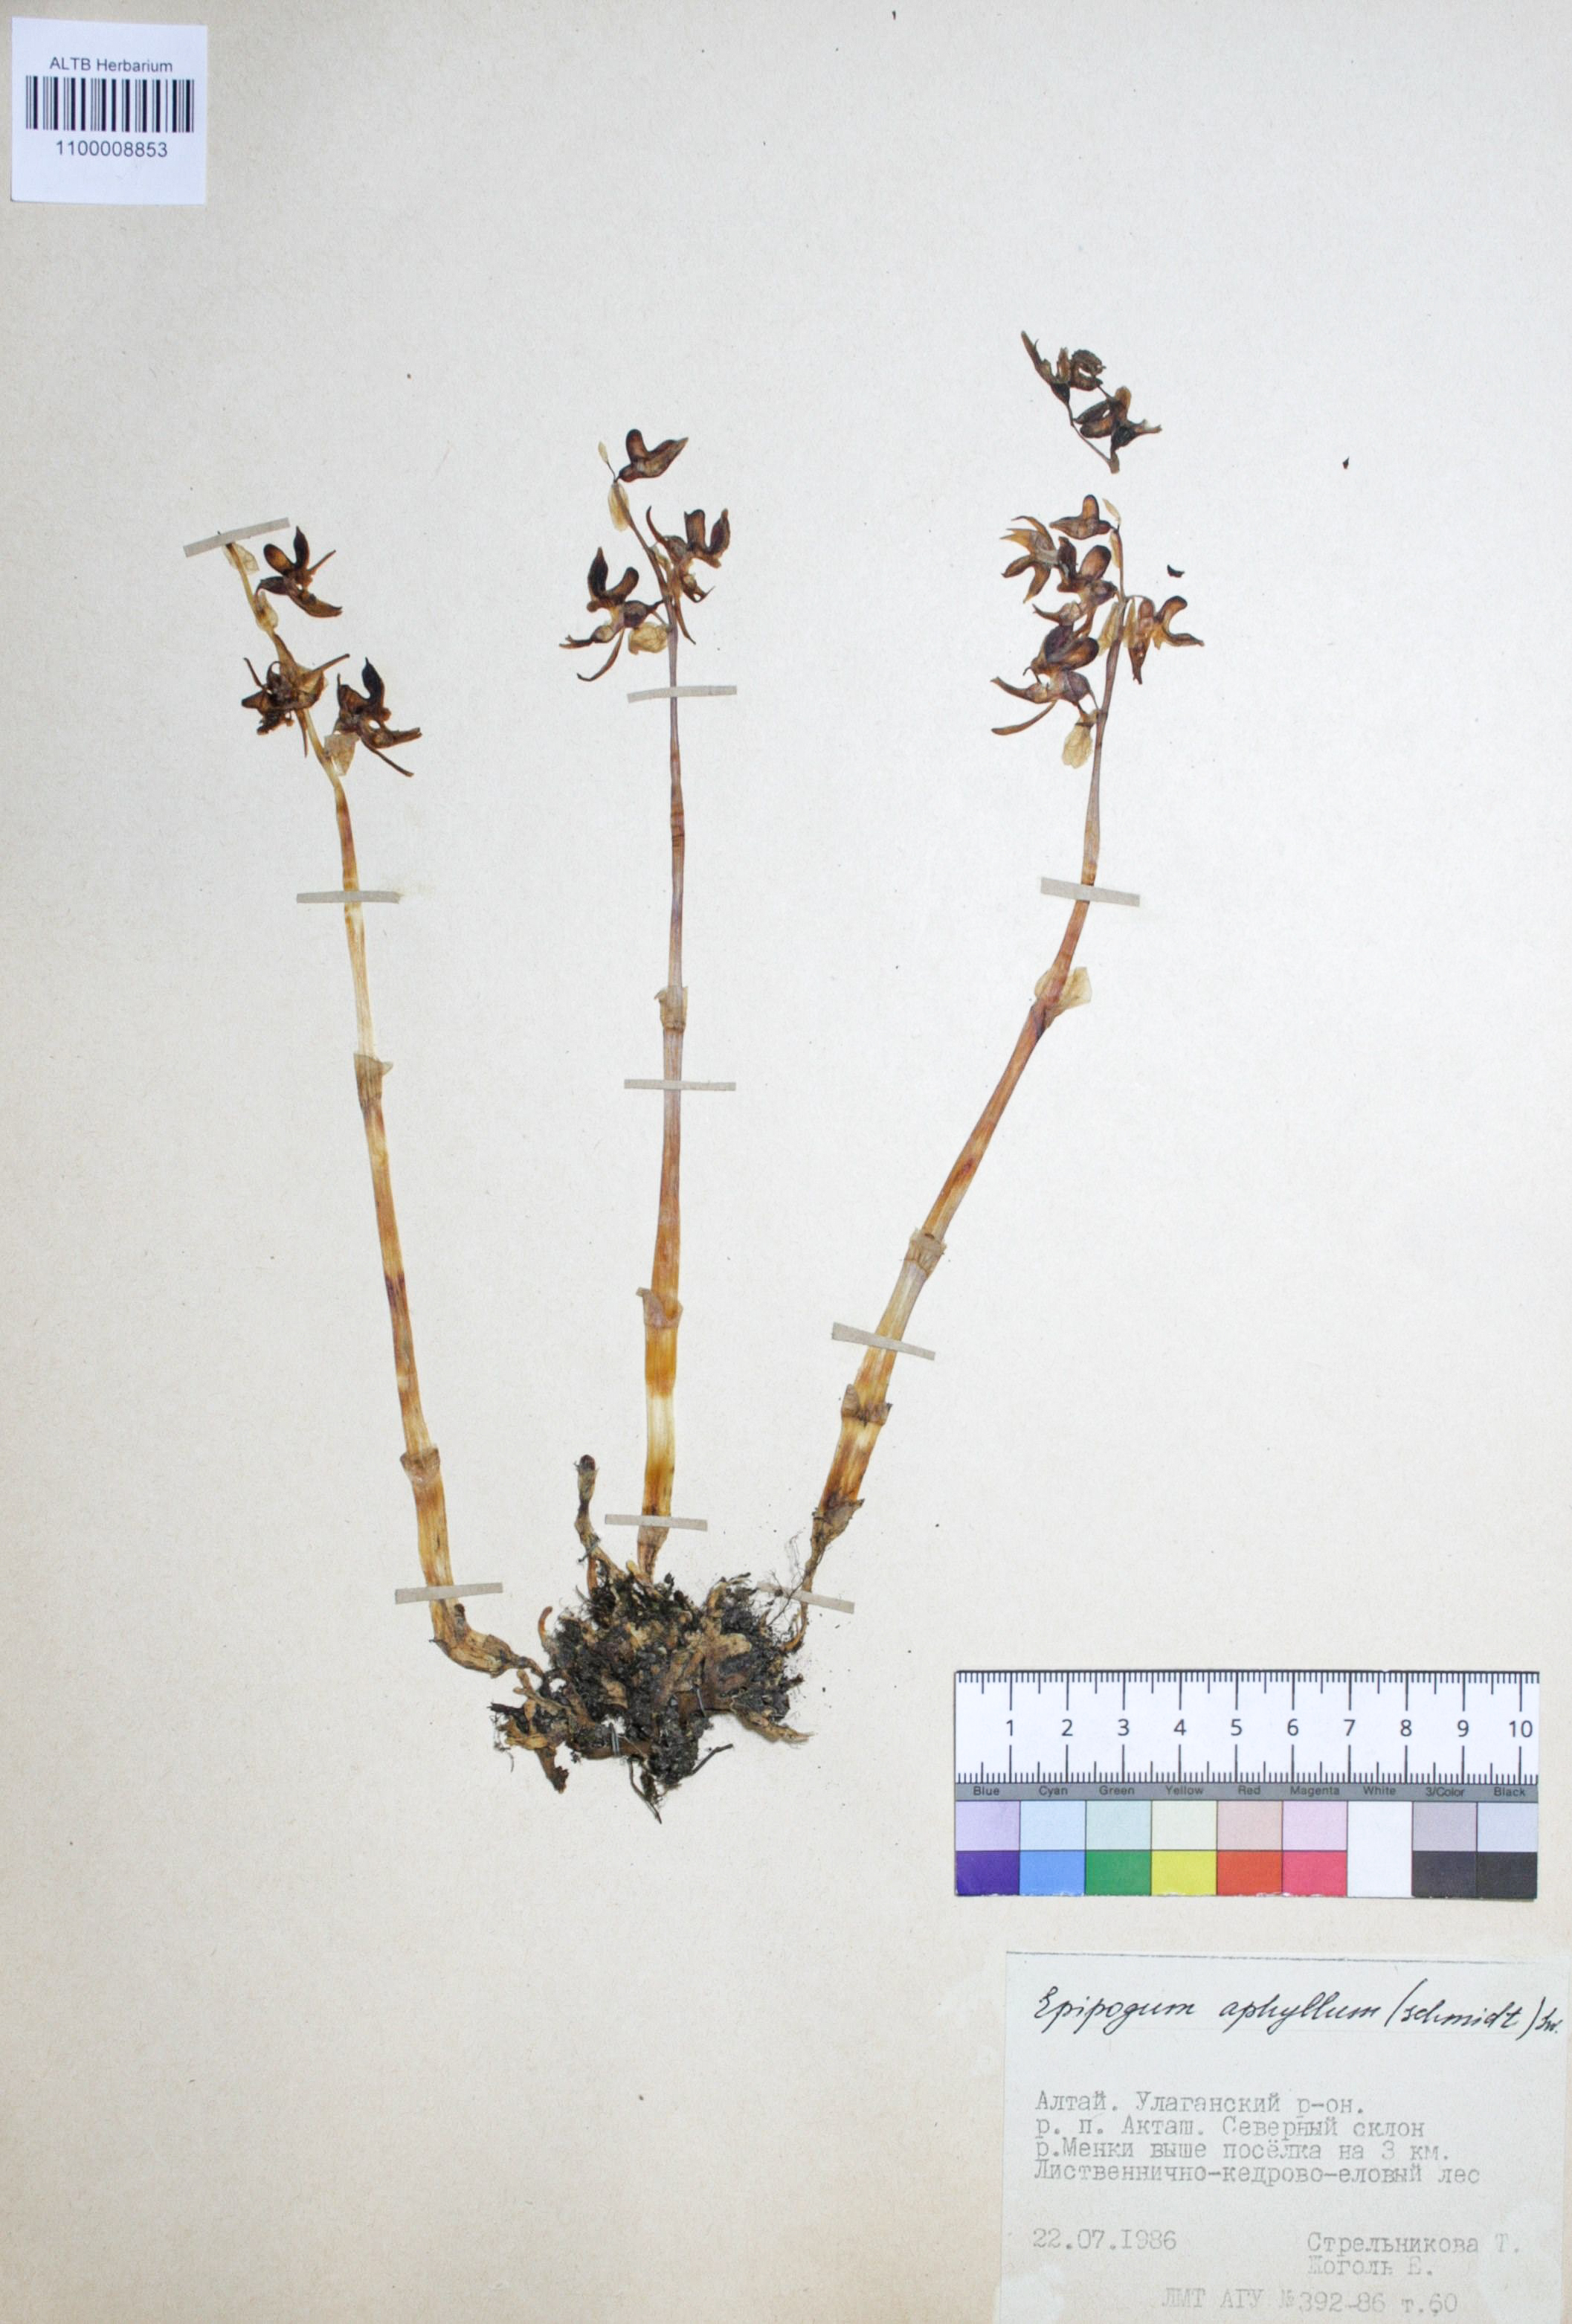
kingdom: Plantae
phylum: Tracheophyta
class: Liliopsida
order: Asparagales
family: Orchidaceae
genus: Epipogium
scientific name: Epipogium aphyllum
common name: Ghost orchid
